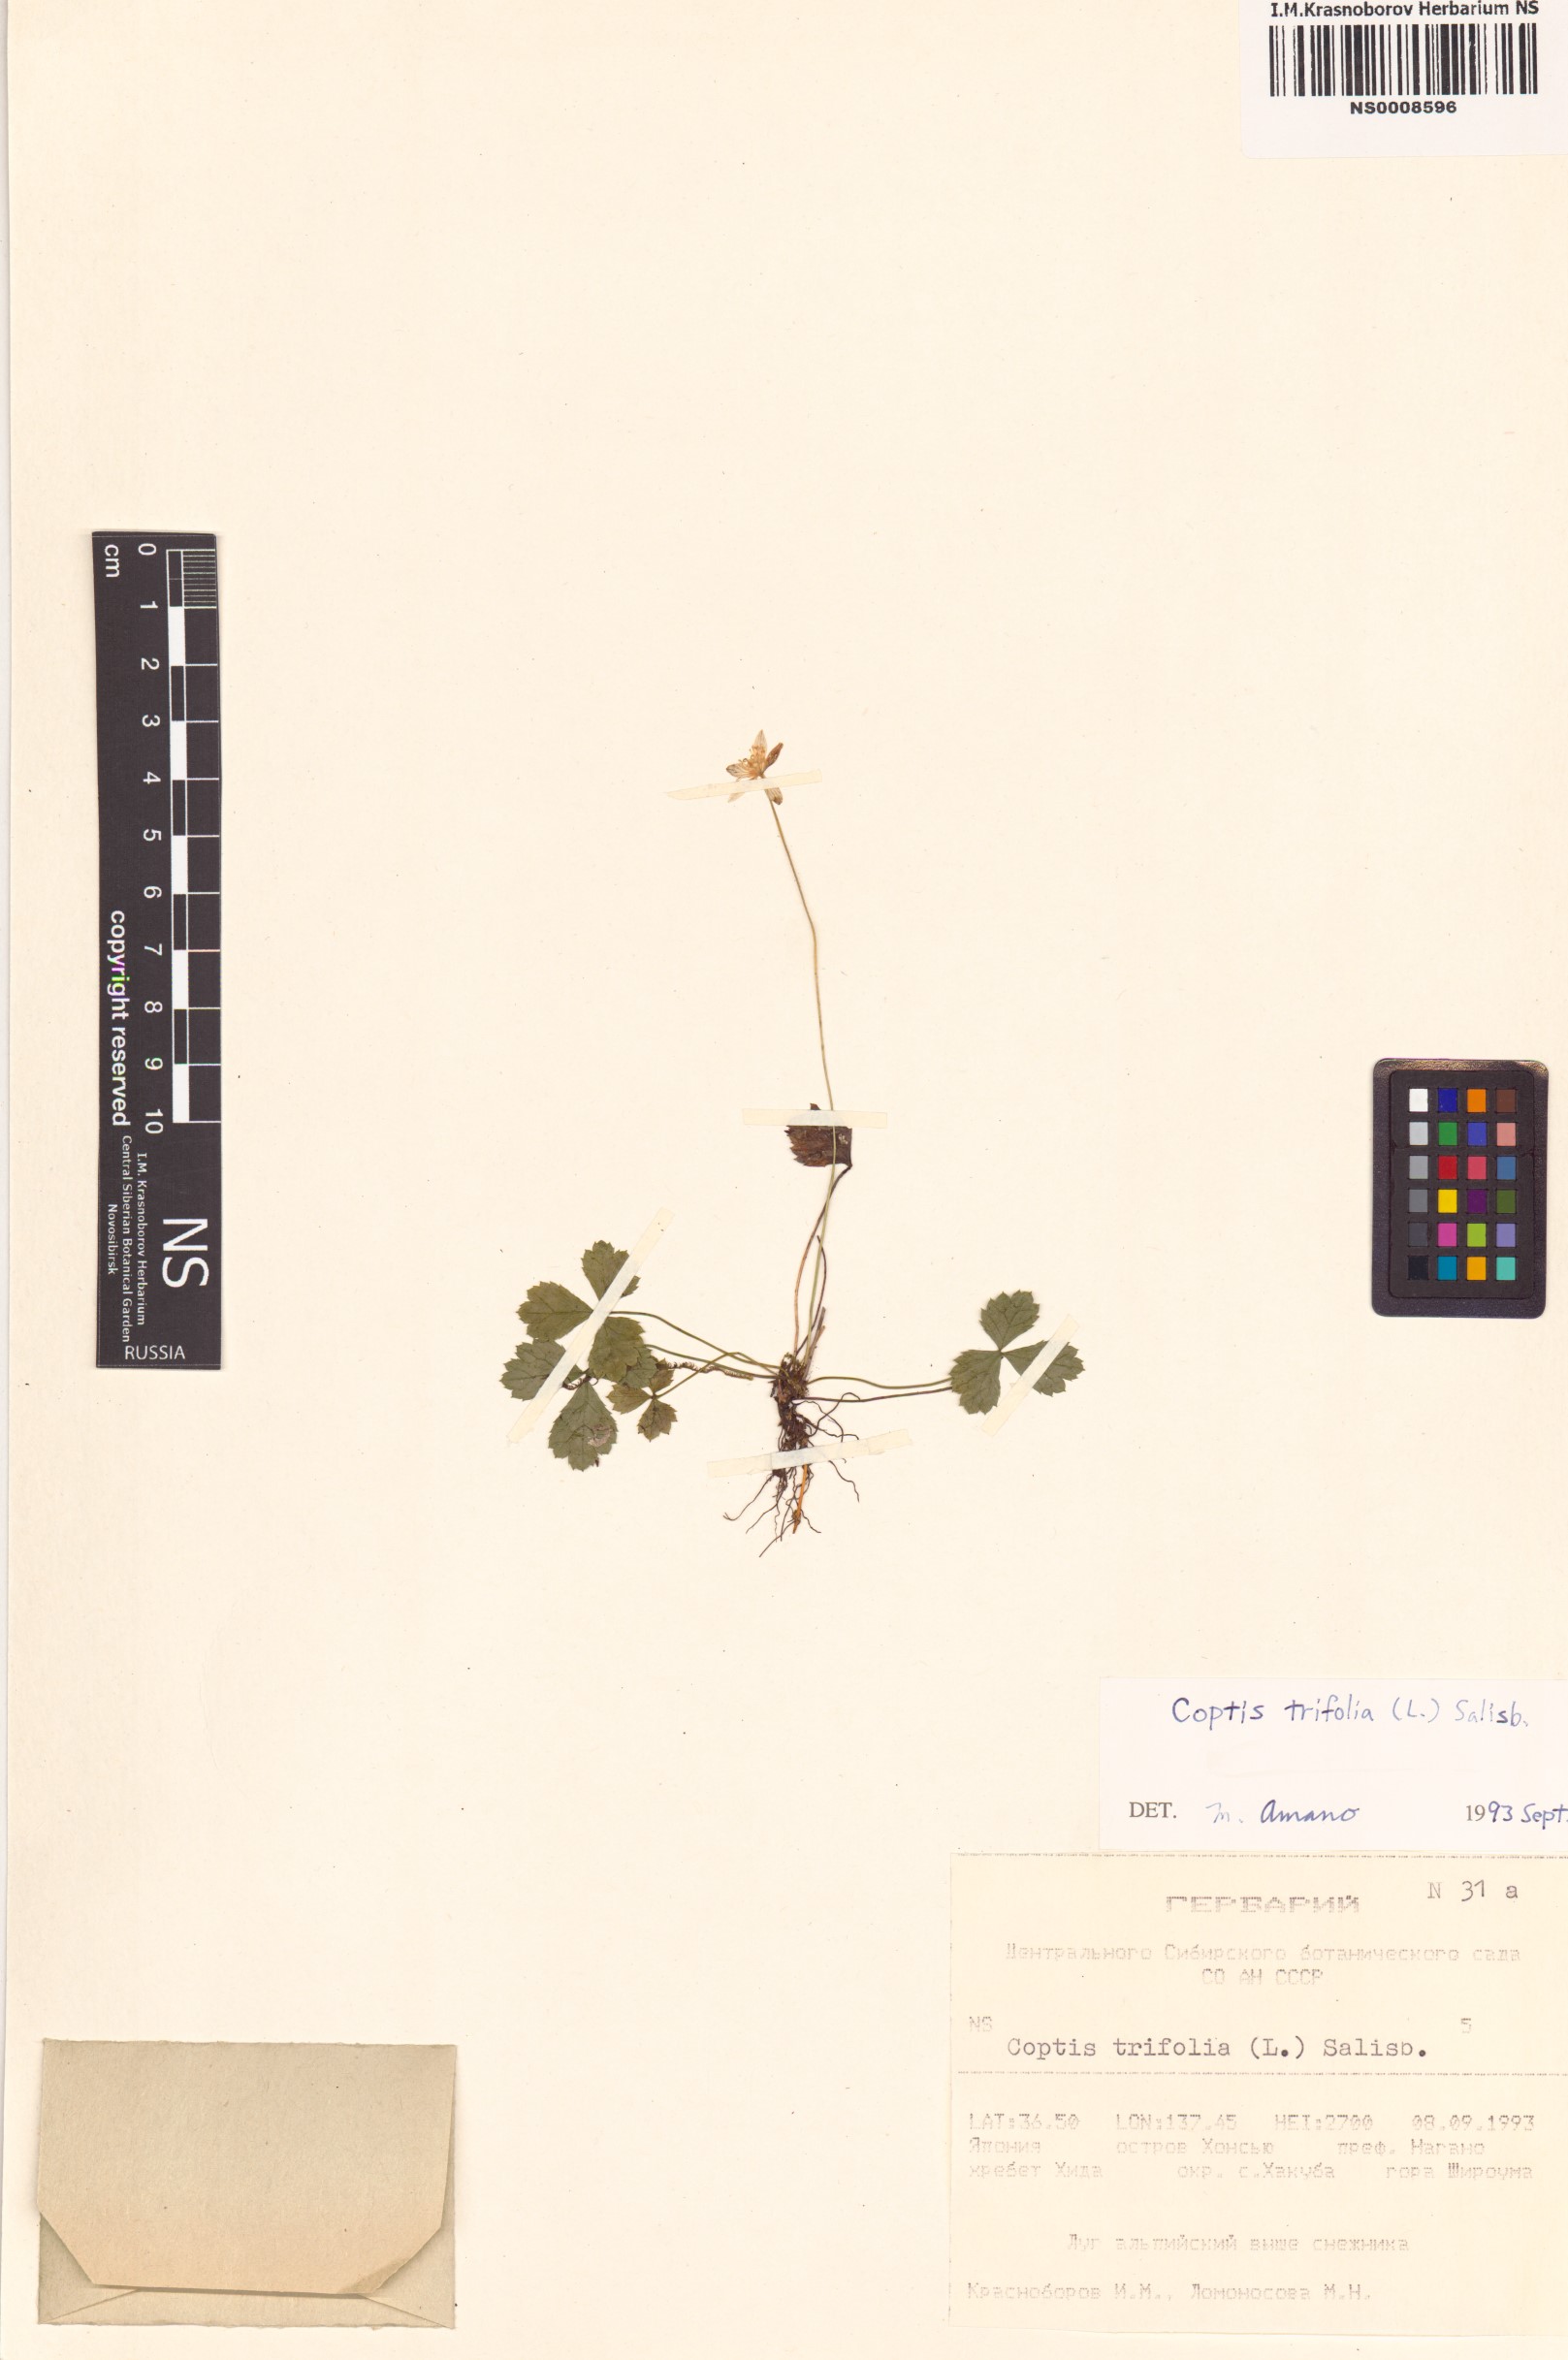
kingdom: Plantae
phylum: Tracheophyta
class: Magnoliopsida
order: Ranunculales
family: Ranunculaceae
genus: Coptis
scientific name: Coptis trifolia
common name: Canker-root
